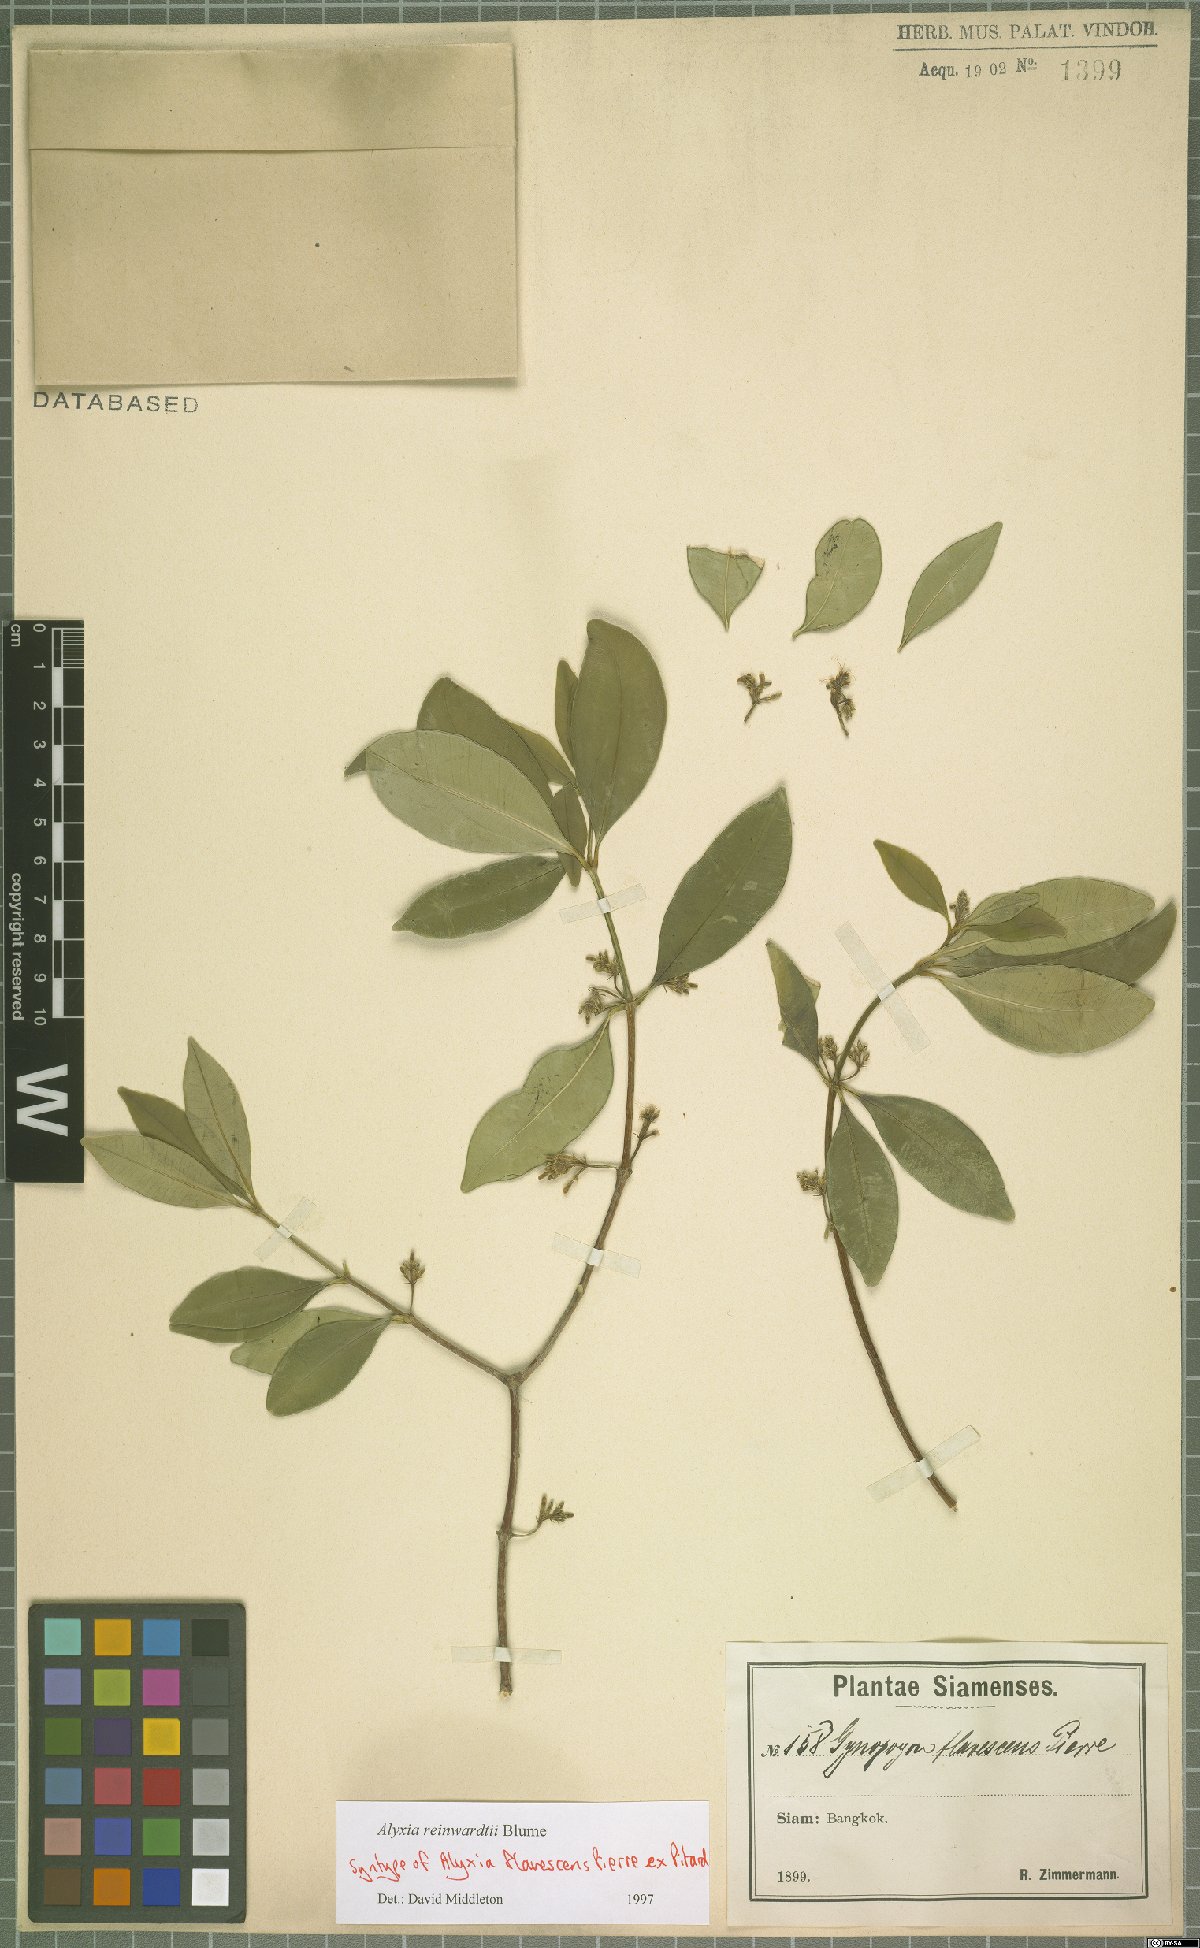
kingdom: Plantae
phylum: Tracheophyta
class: Magnoliopsida
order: Gentianales
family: Apocynaceae
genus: Alyxia
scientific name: Alyxia reinwardtii
